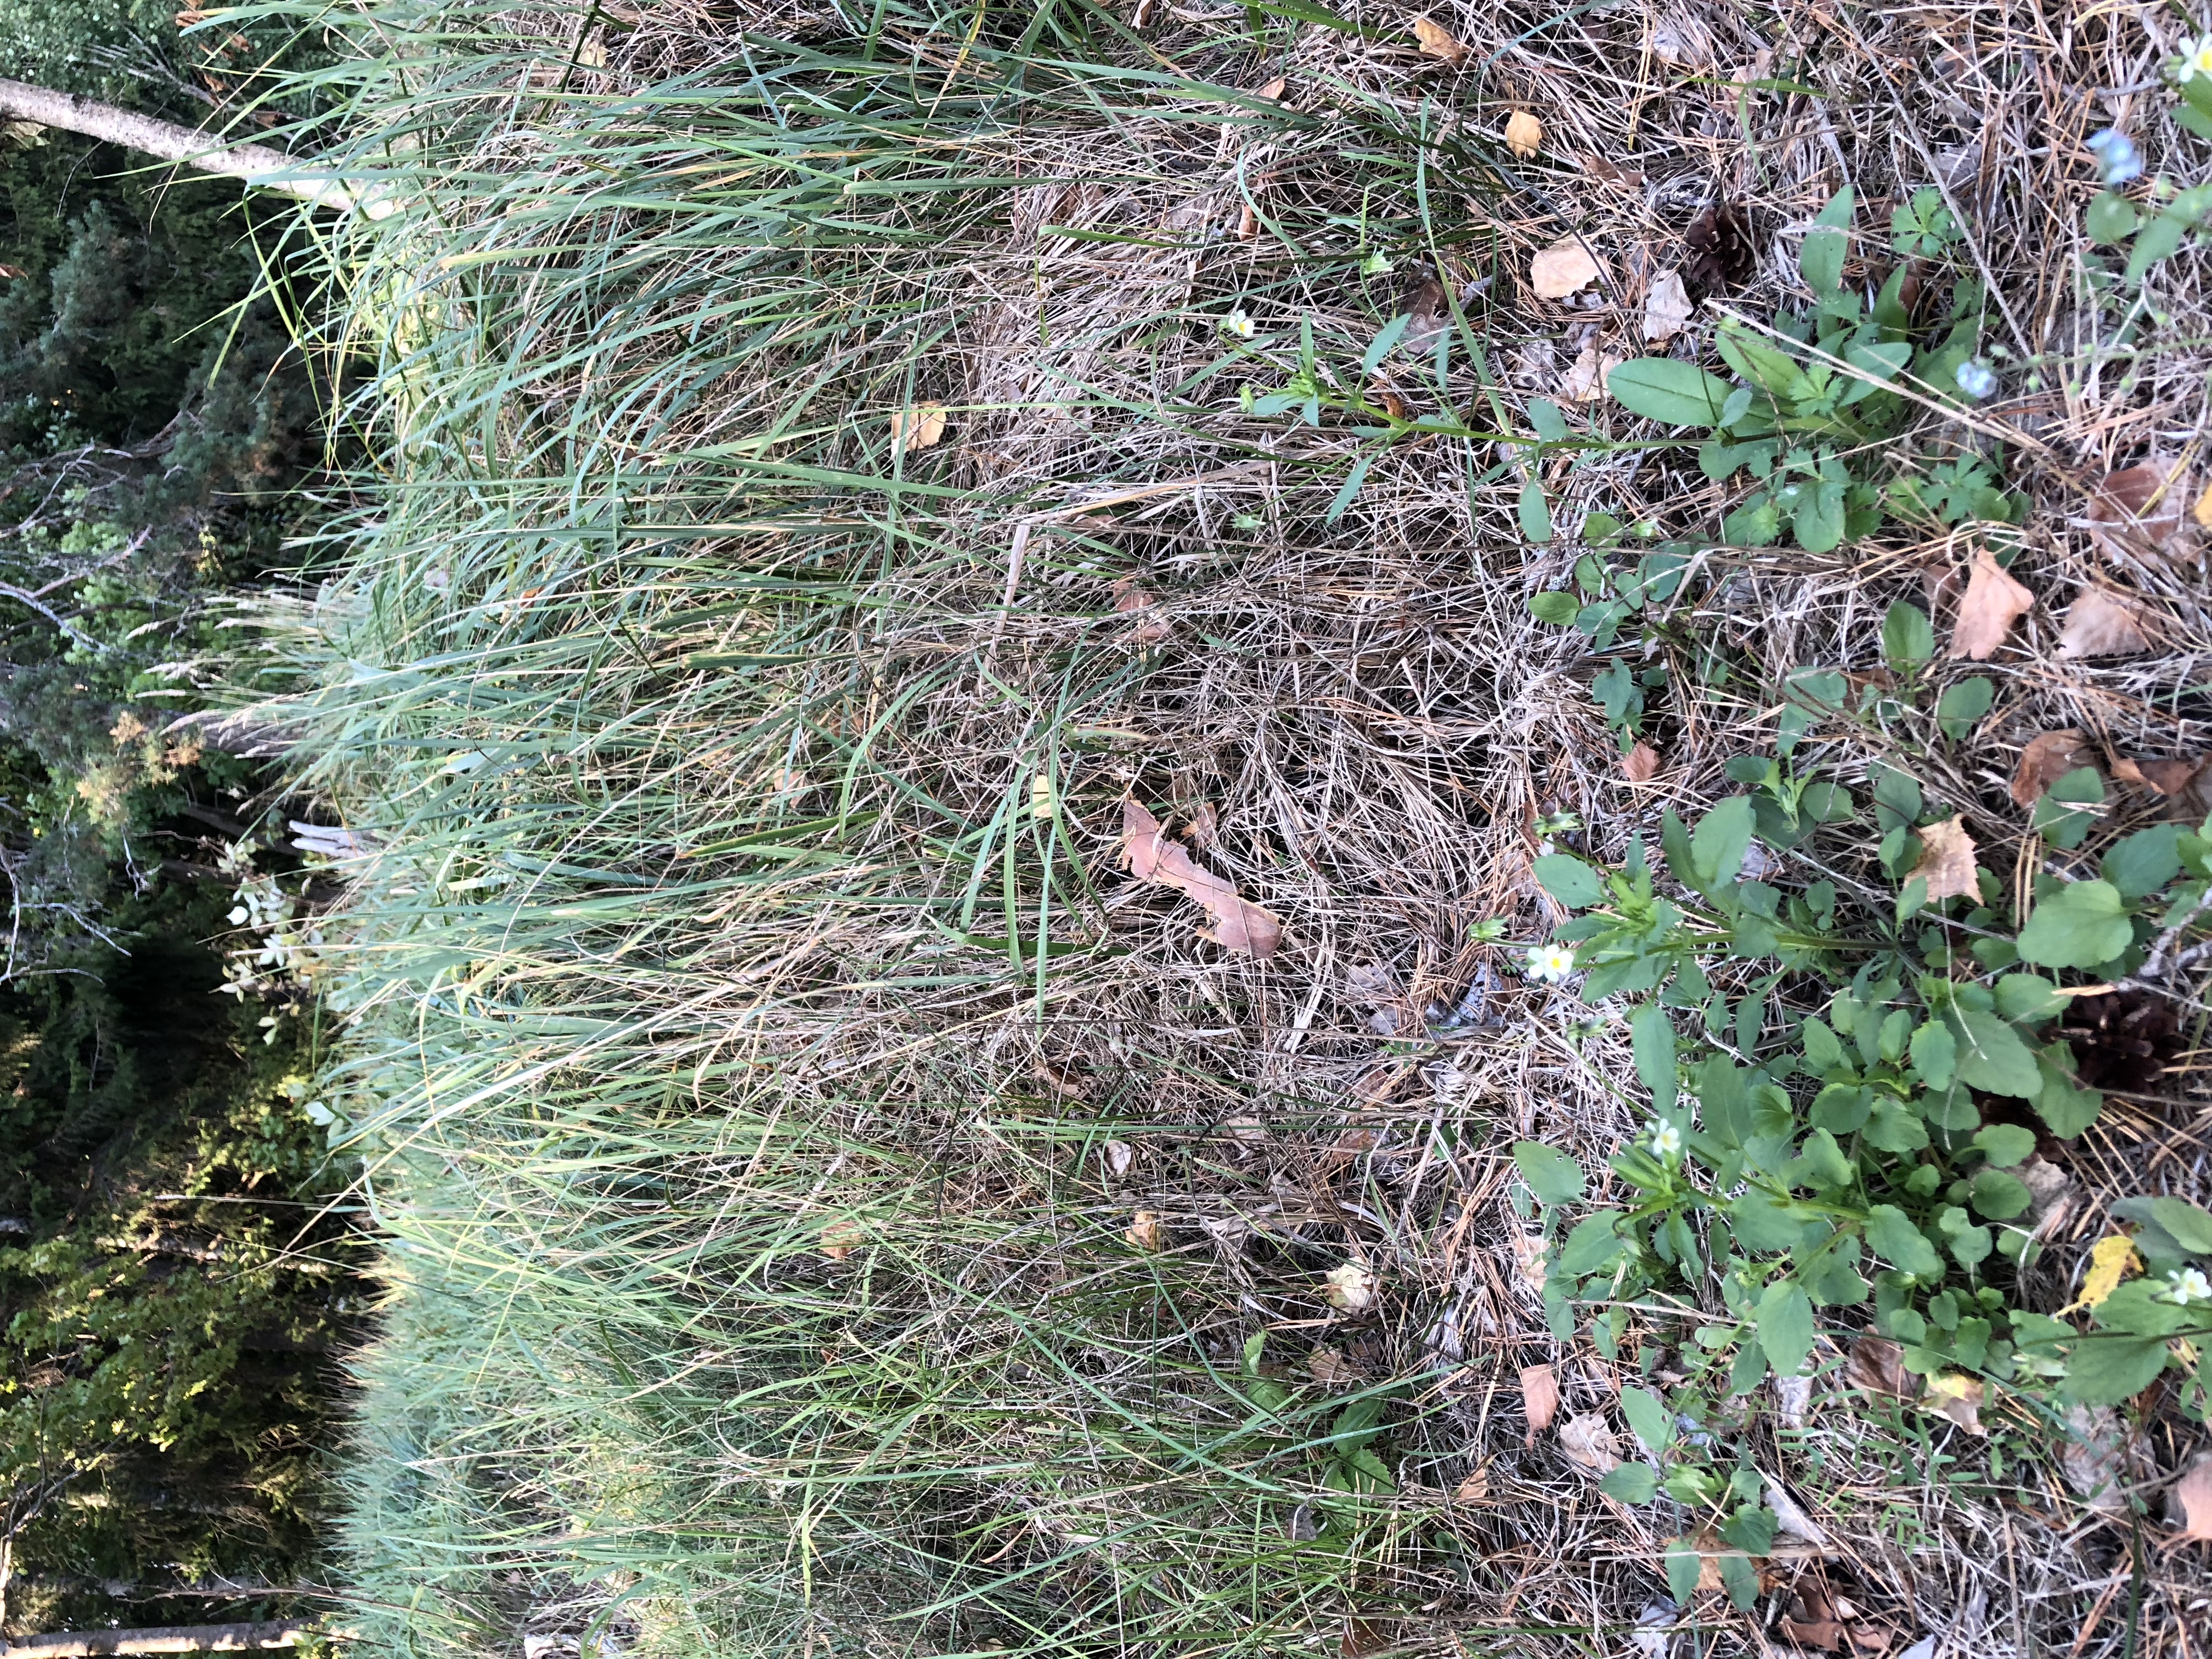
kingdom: Plantae
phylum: Tracheophyta
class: Magnoliopsida
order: Malpighiales
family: Violaceae
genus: Viola
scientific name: Viola tricolor
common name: Pansy
